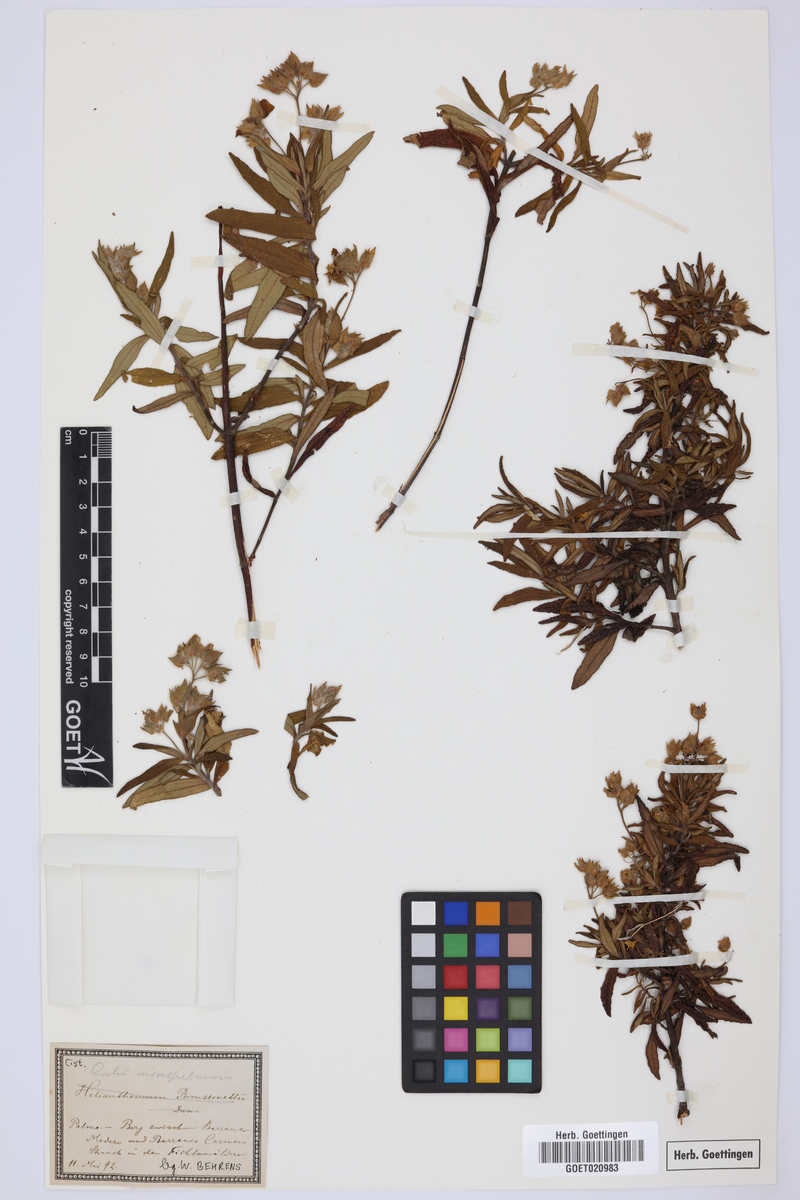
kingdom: Plantae
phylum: Tracheophyta
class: Magnoliopsida
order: Malvales
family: Cistaceae
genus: Cistus
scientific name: Cistus monspeliensis
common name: Montpelier cistus
